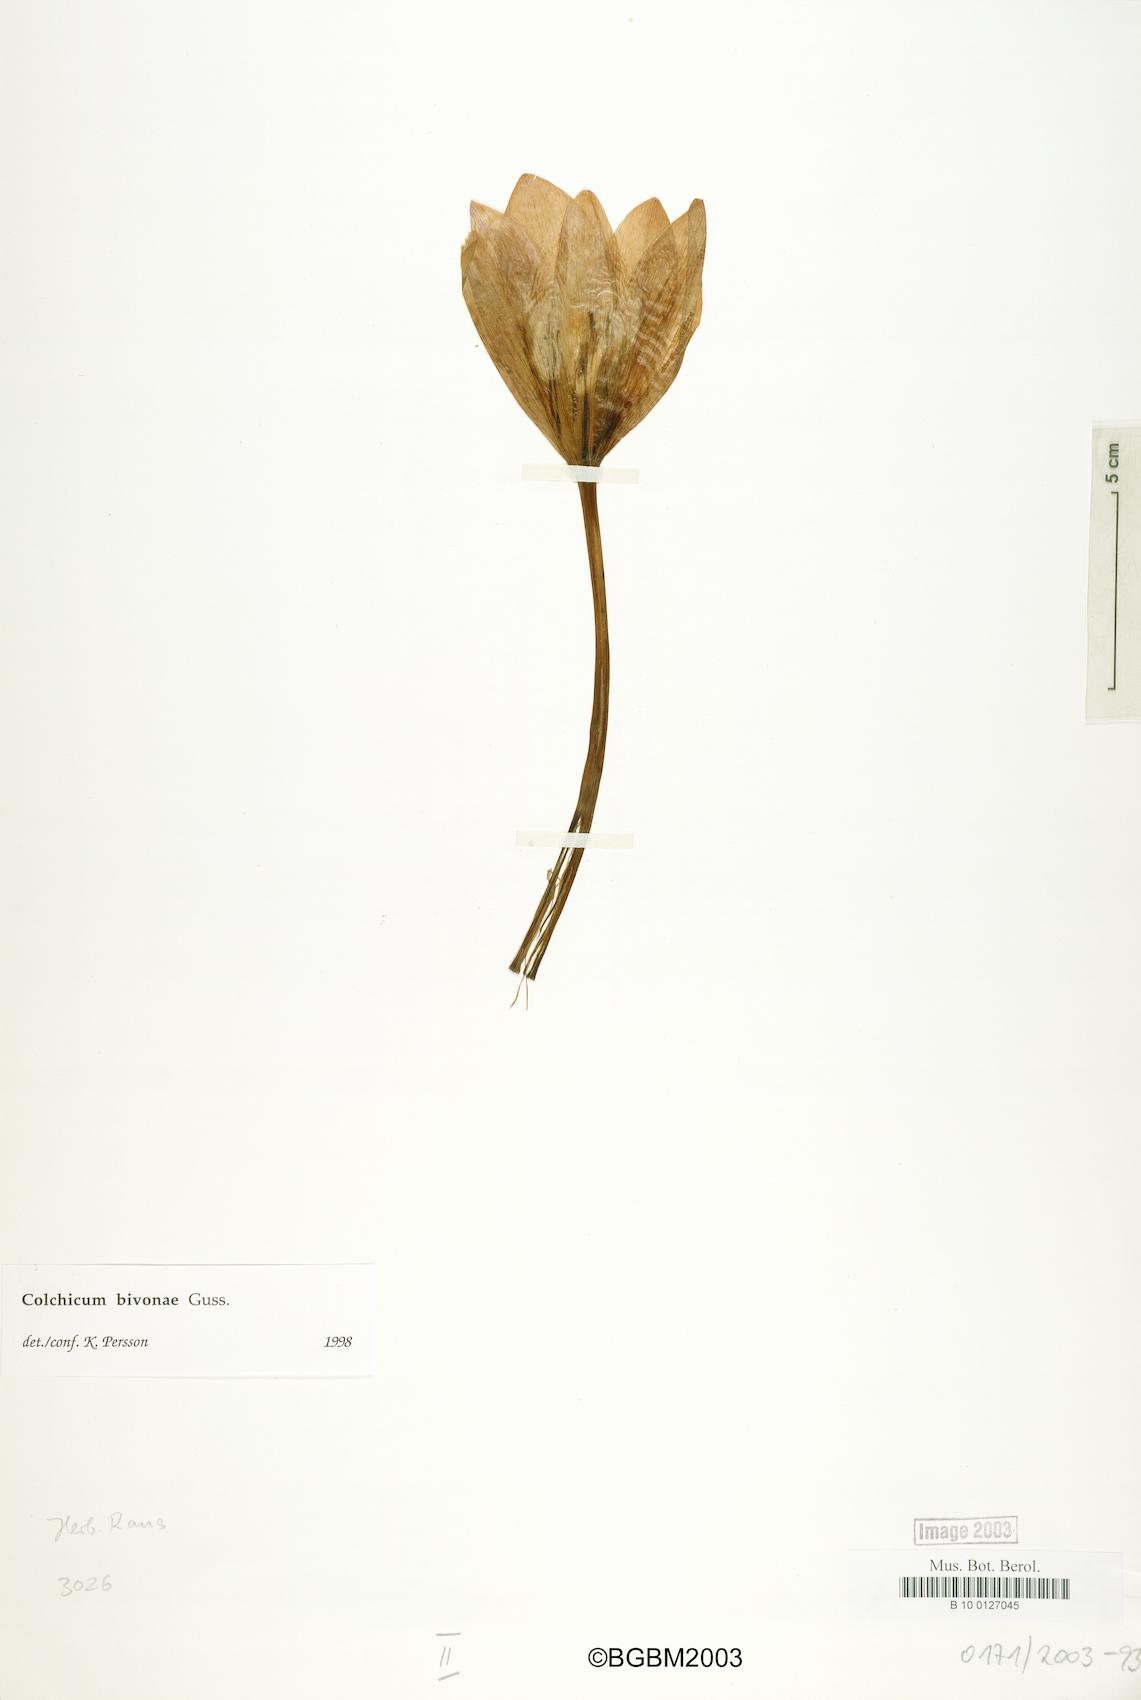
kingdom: Plantae
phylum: Tracheophyta
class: Liliopsida
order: Liliales
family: Colchicaceae
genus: Colchicum
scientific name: Colchicum bivonae
